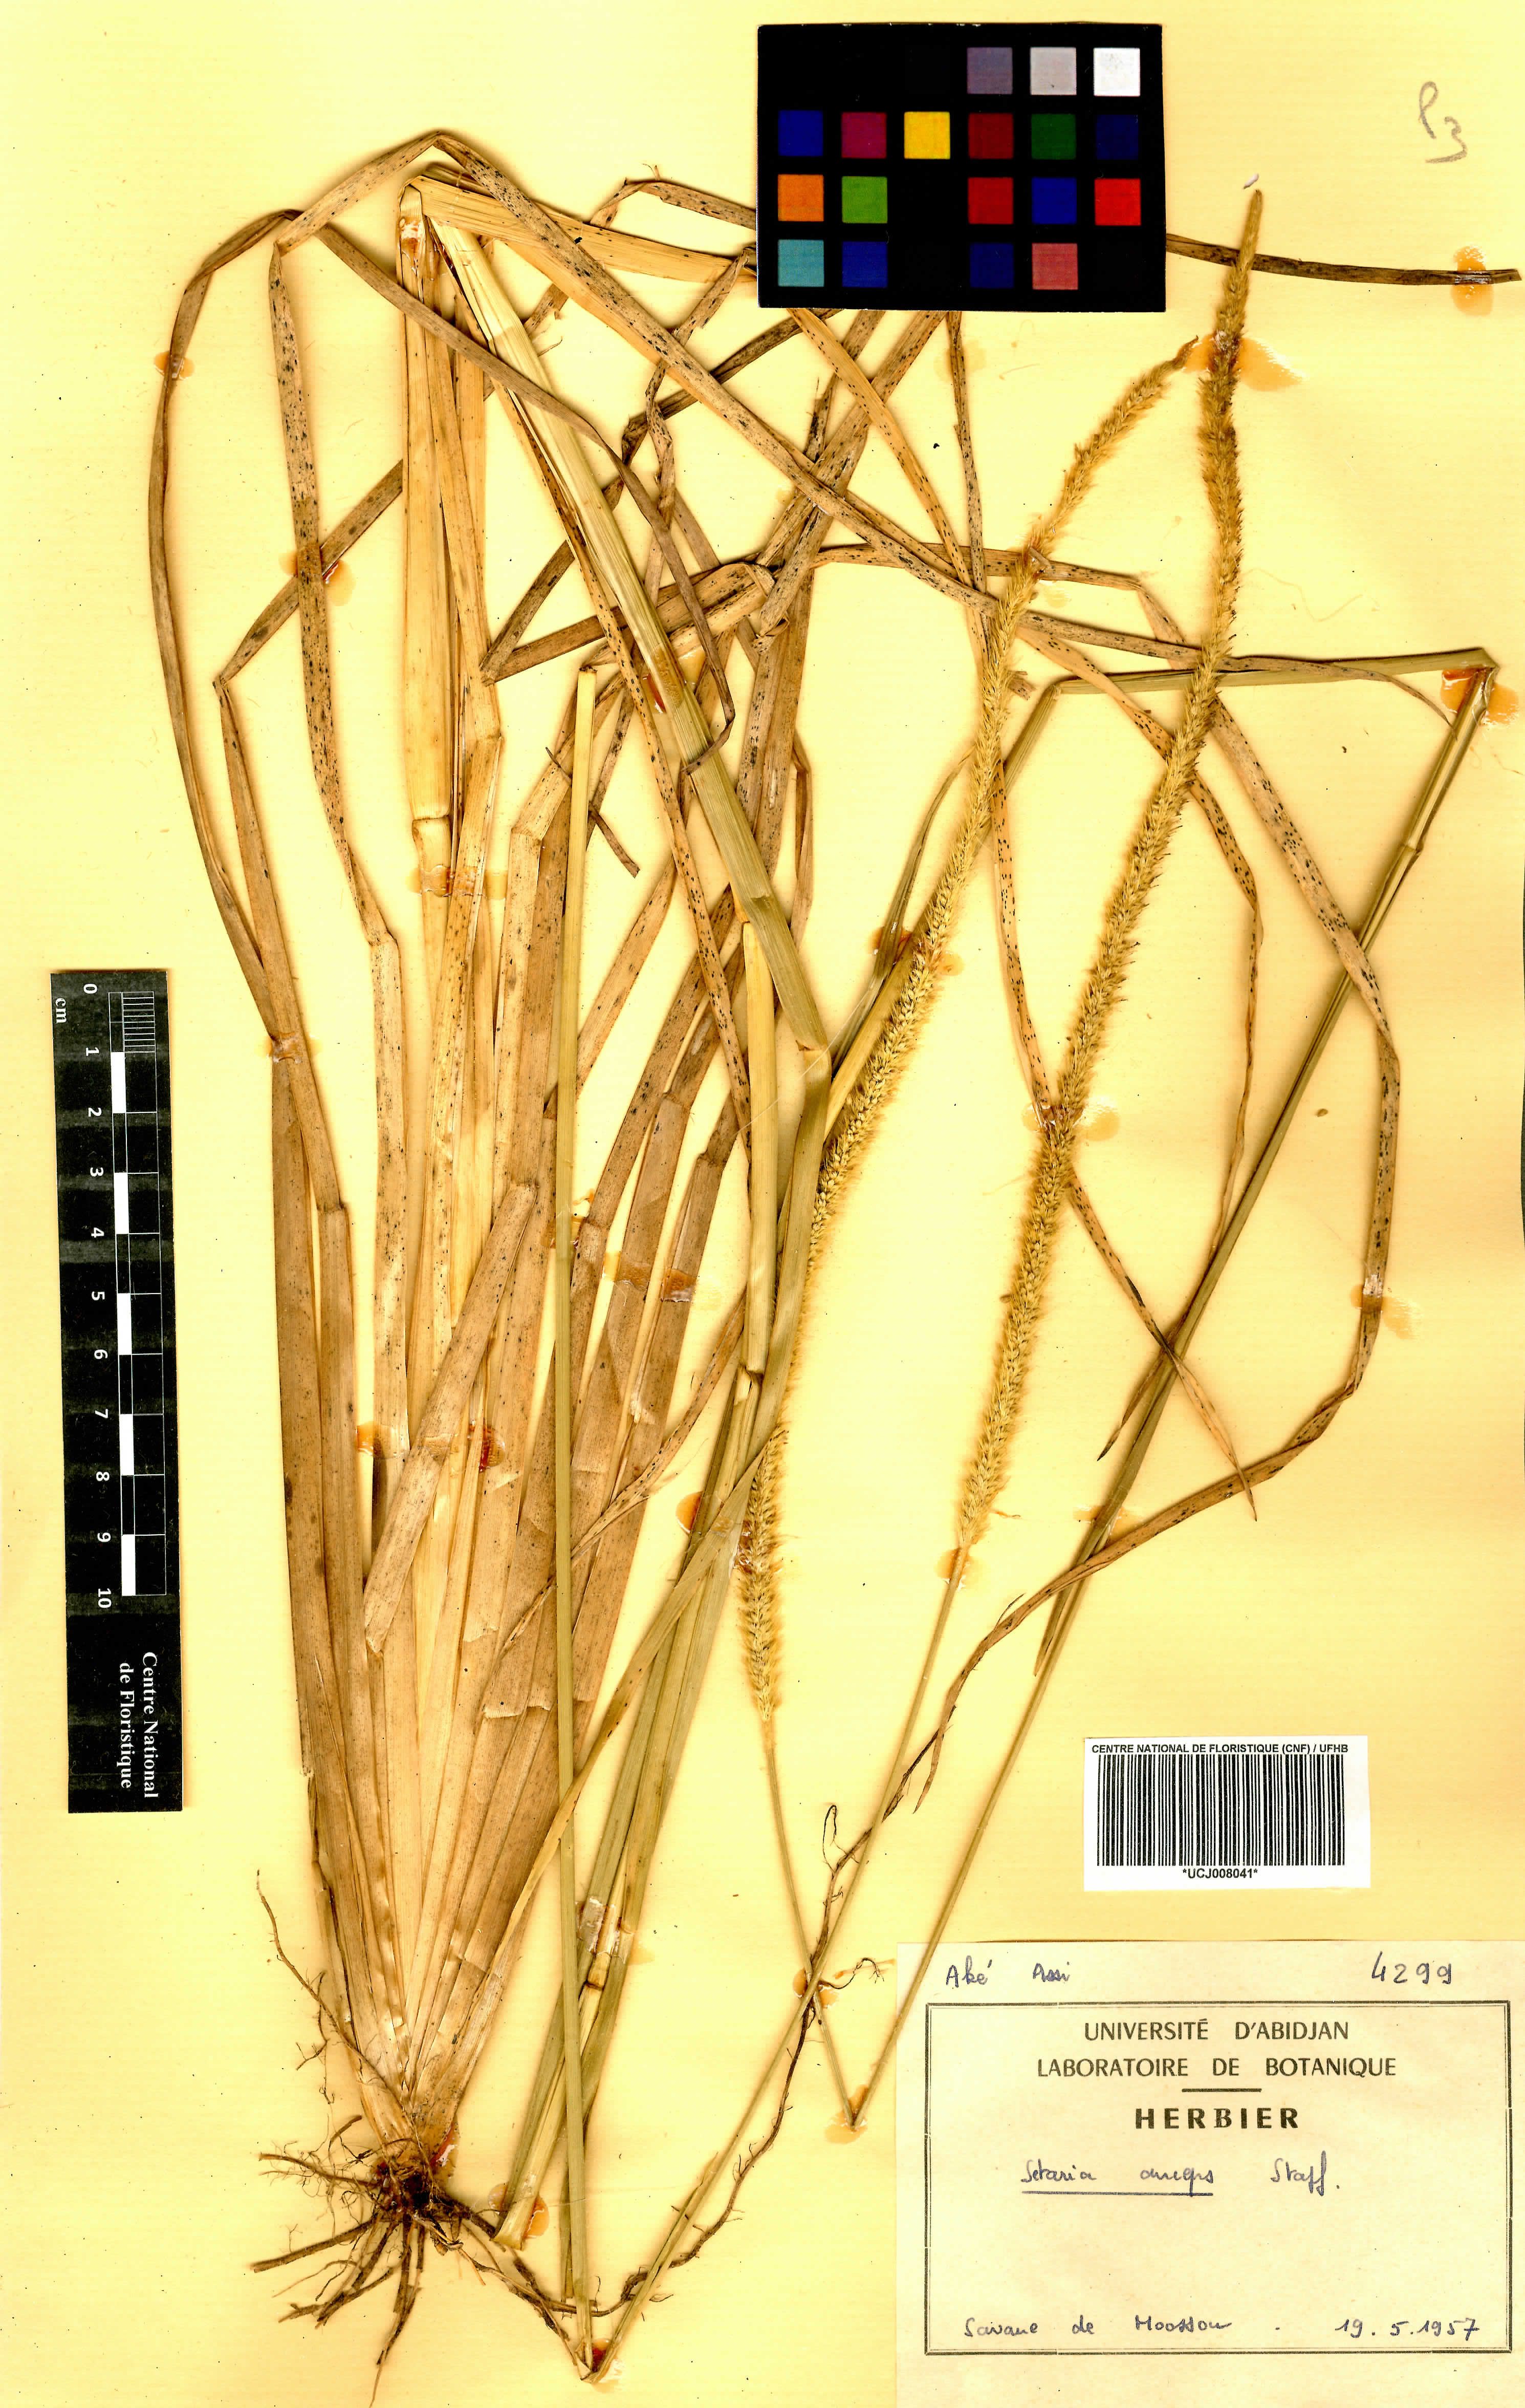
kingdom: Plantae
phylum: Tracheophyta
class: Liliopsida
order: Poales
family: Poaceae
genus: Setaria
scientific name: Setaria sphacelata
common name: African bristlegrass
